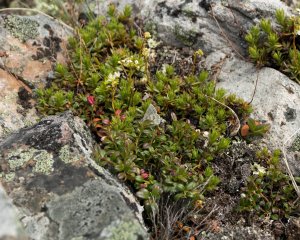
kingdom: Animalia
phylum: Arthropoda
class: Insecta
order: Lepidoptera
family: Lycaenidae
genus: Agriades
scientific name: Agriades glandon
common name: Arctic Blue
